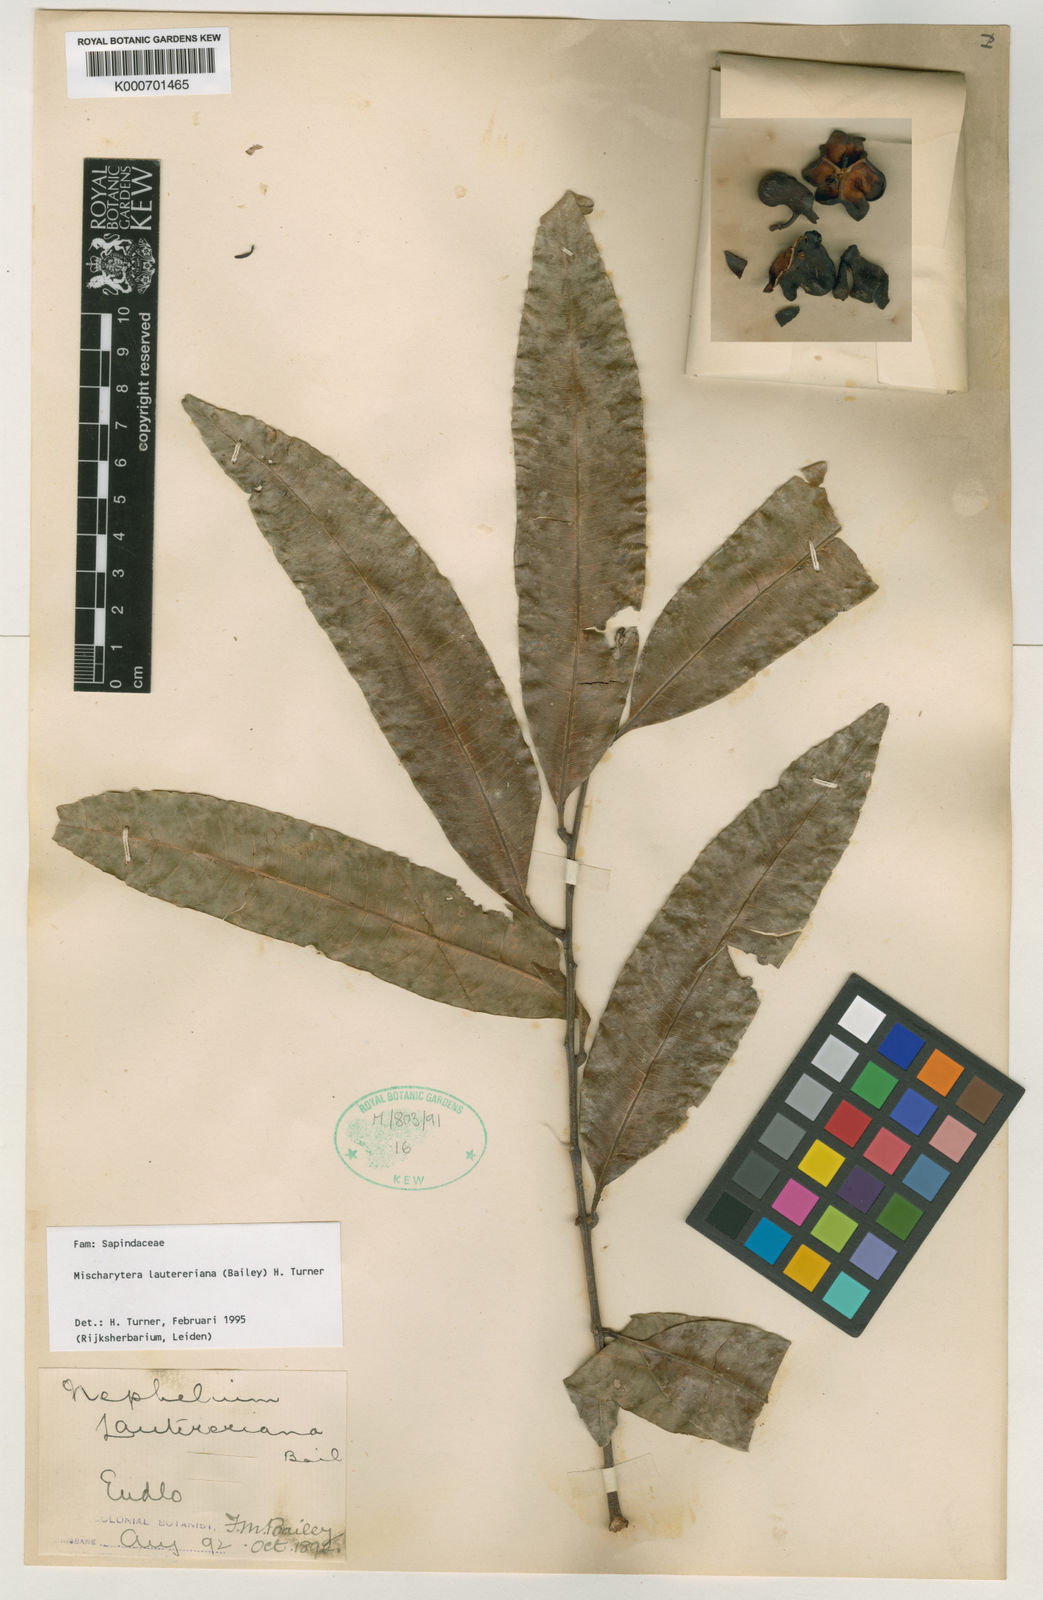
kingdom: Plantae
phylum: Tracheophyta
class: Magnoliopsida
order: Sapindales
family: Sapindaceae
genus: Mischarytera
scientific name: Mischarytera lautereriana
